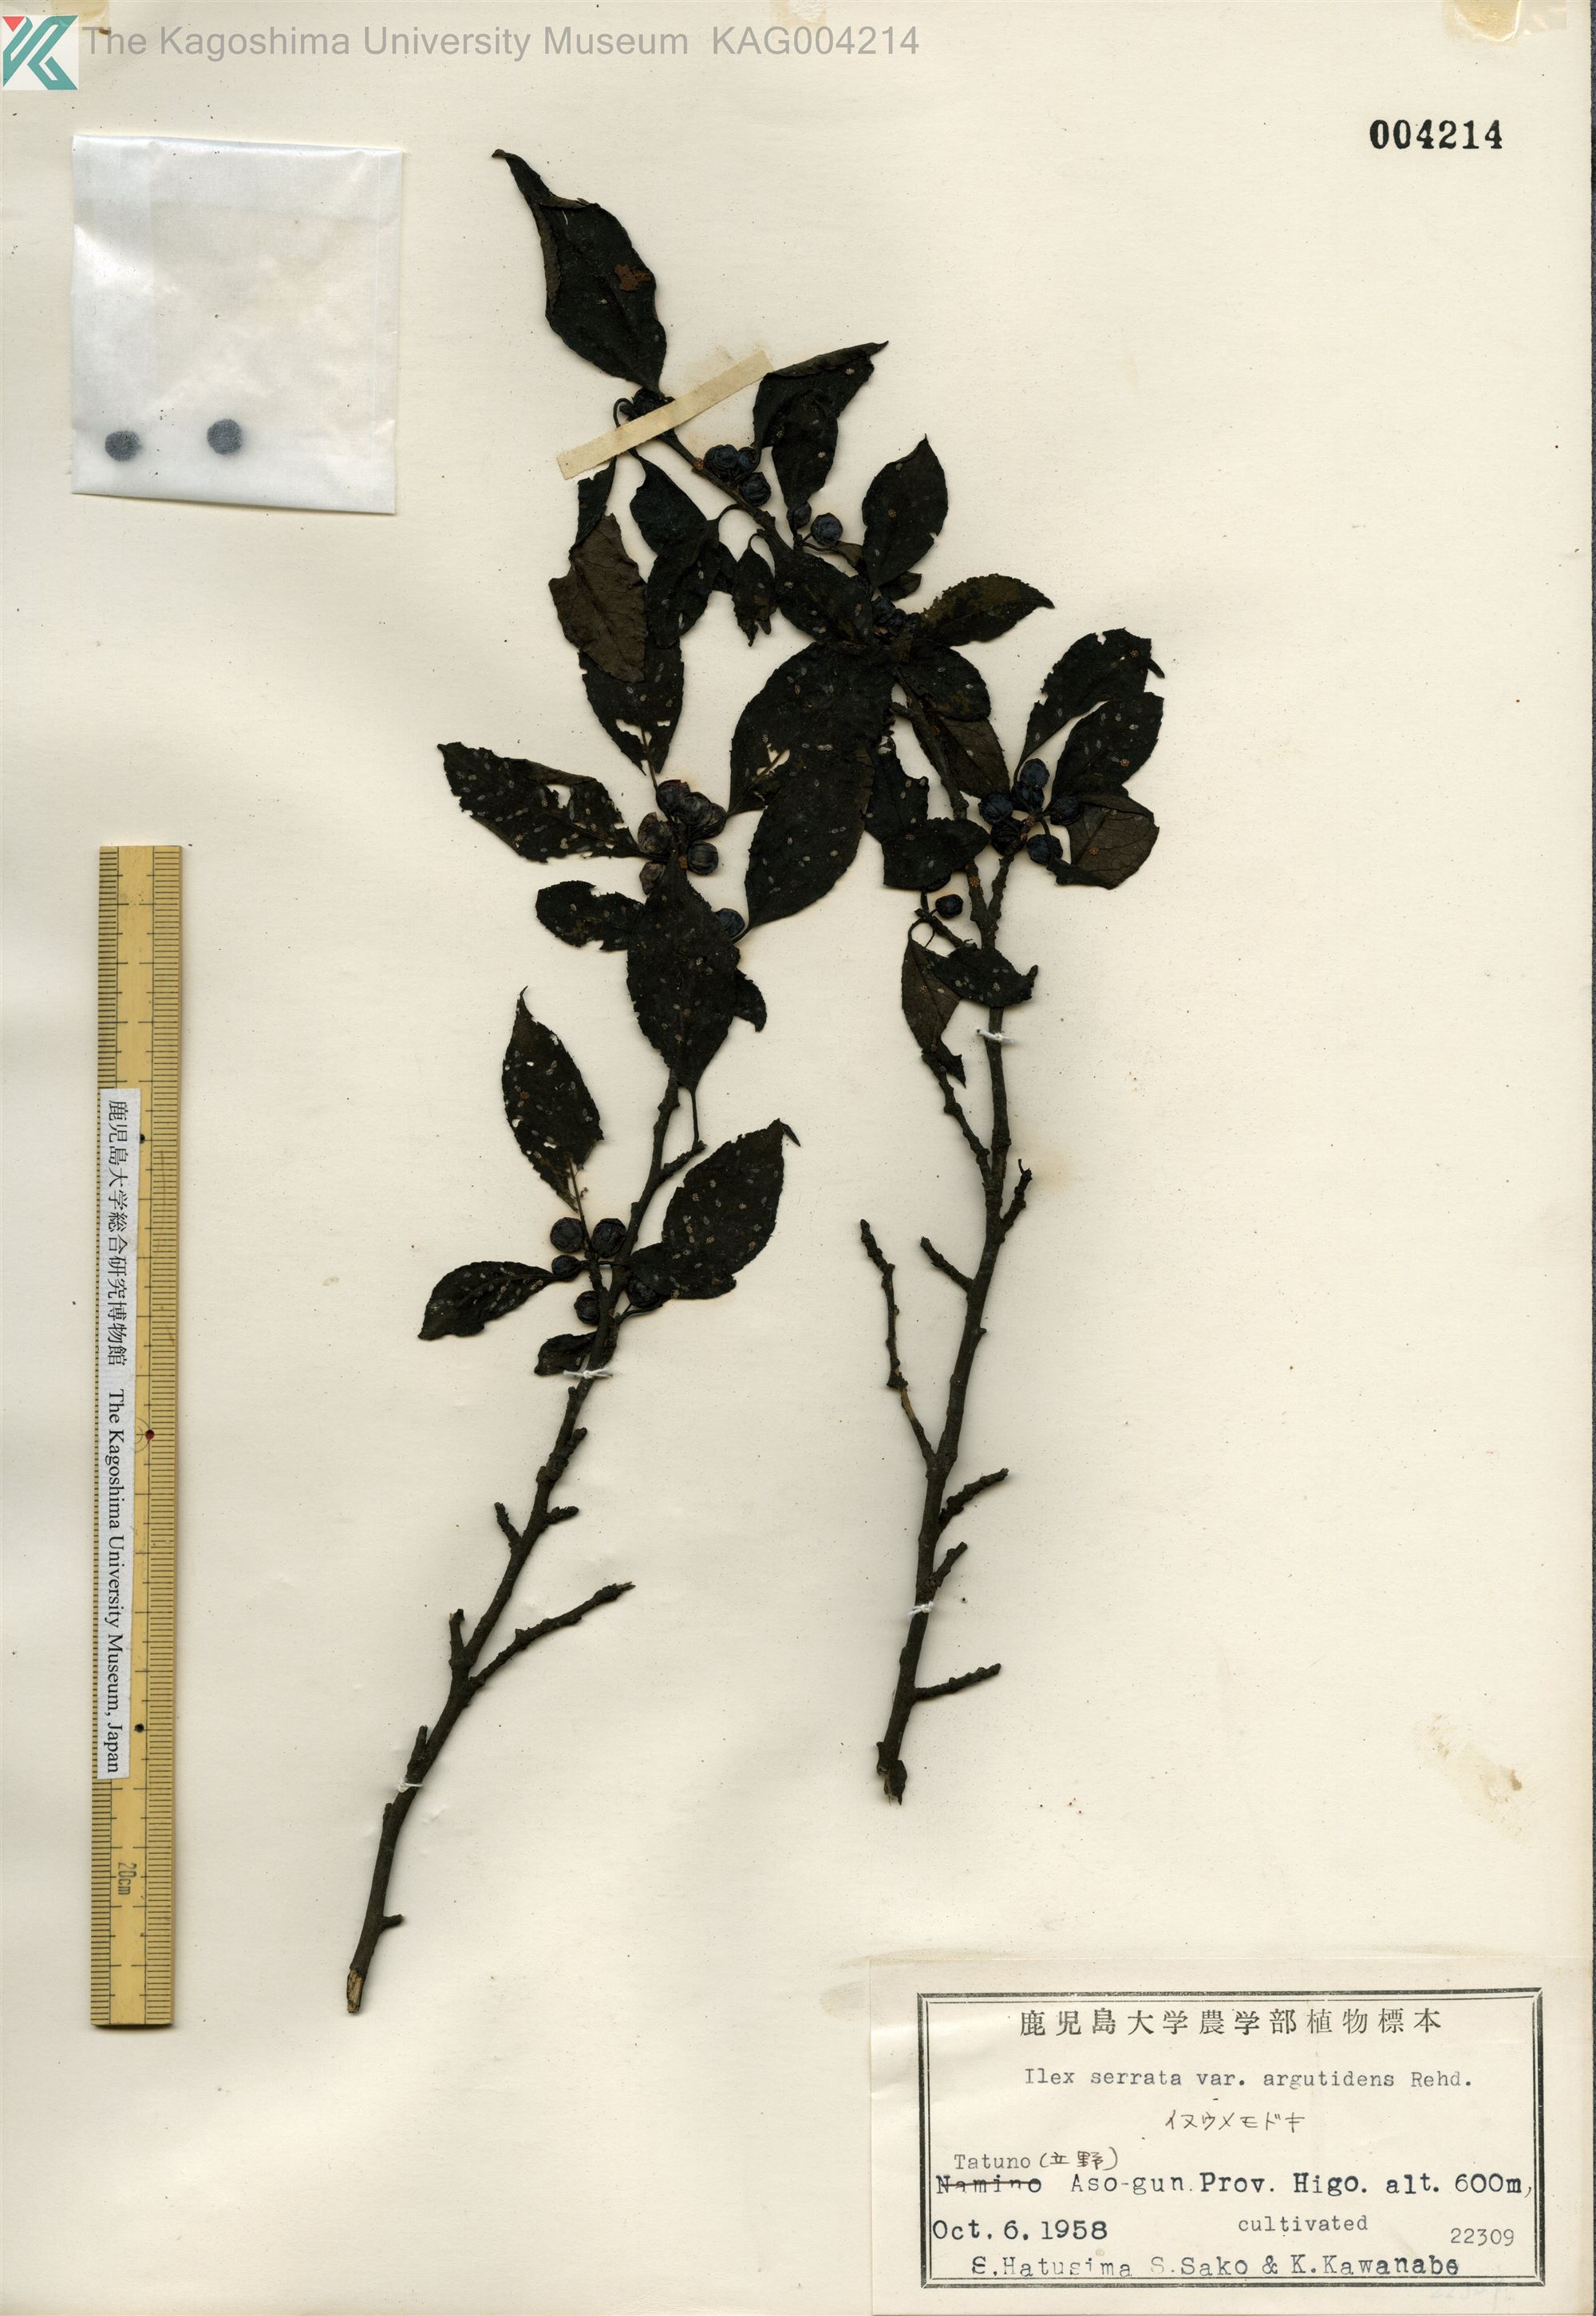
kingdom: Plantae
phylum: Tracheophyta
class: Magnoliopsida
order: Aquifoliales
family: Aquifoliaceae
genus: Ilex
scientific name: Ilex serrata
